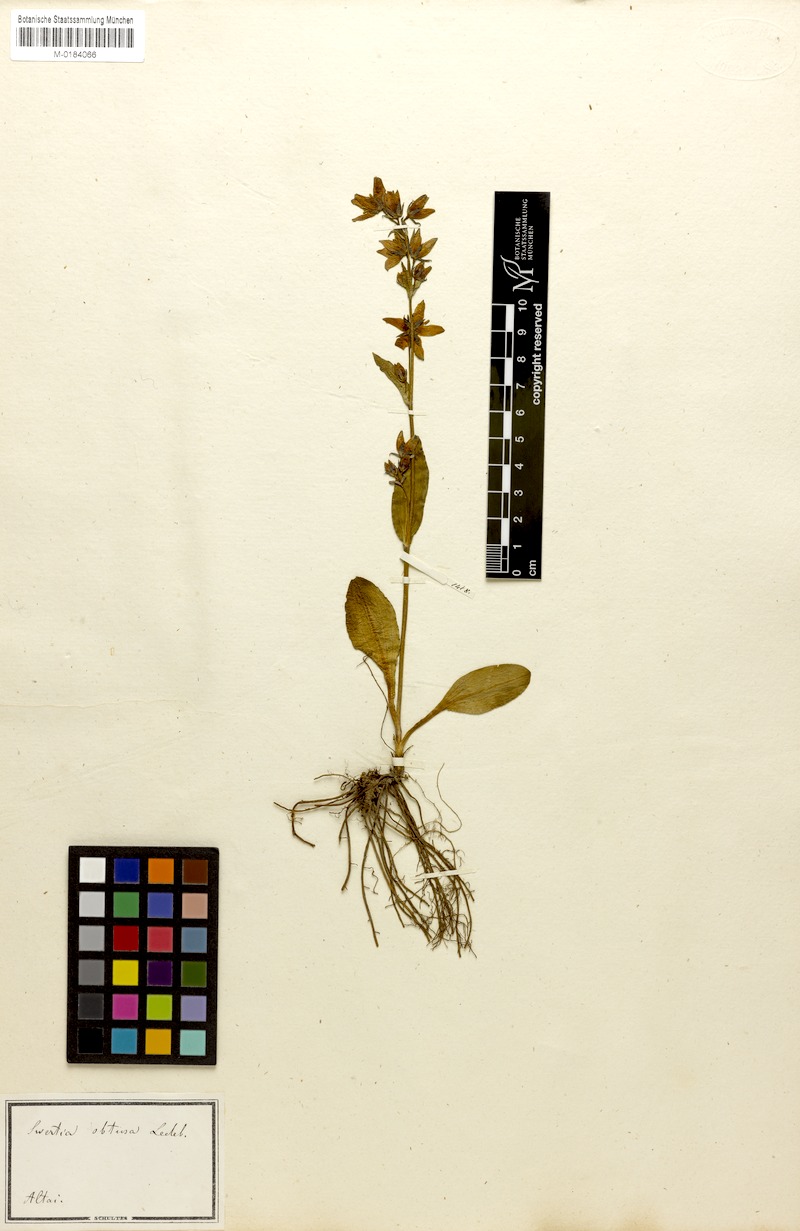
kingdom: Plantae
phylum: Tracheophyta
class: Magnoliopsida
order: Gentianales
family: Gentianaceae
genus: Swertia
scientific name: Swertia obtusa
